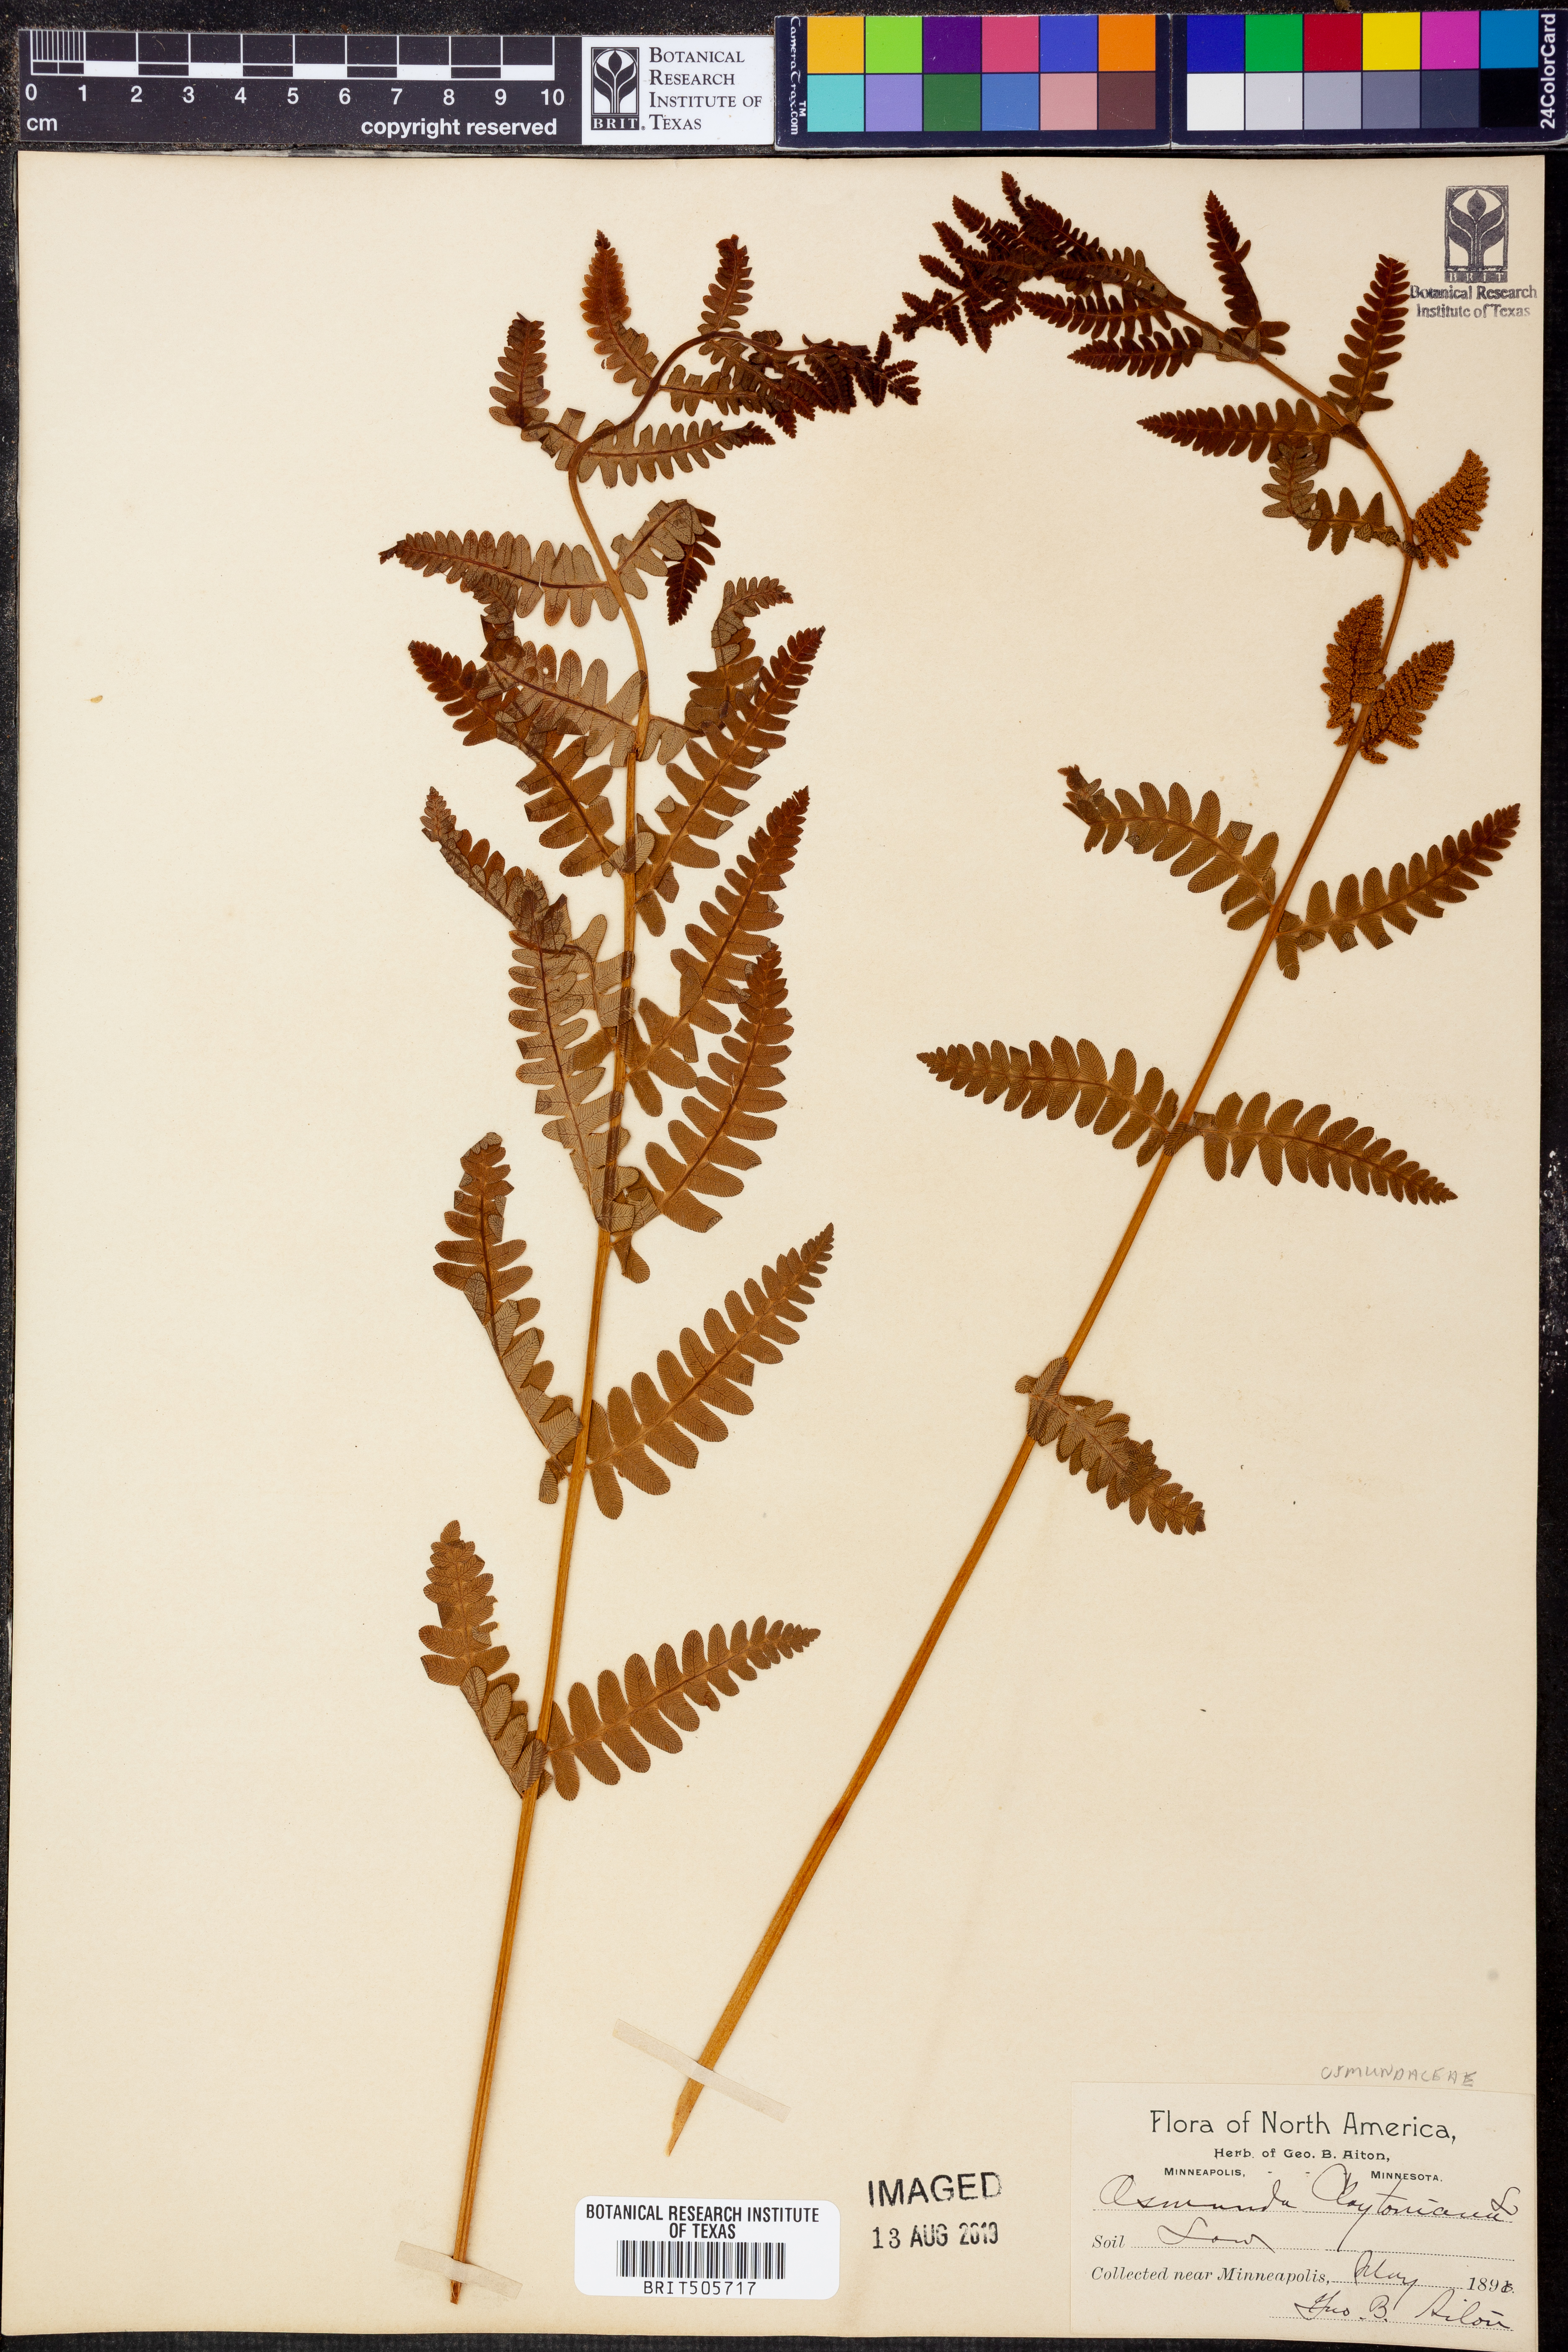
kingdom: Plantae
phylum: Tracheophyta
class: Polypodiopsida
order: Osmundales
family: Osmundaceae
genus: Claytosmunda
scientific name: Claytosmunda claytoniana
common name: Clayton's fern
